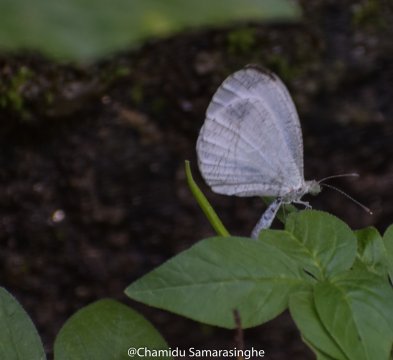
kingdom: Animalia
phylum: Arthropoda
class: Insecta
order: Lepidoptera
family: Pieridae
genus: Leptosia
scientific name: Leptosia nina
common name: Psyche
